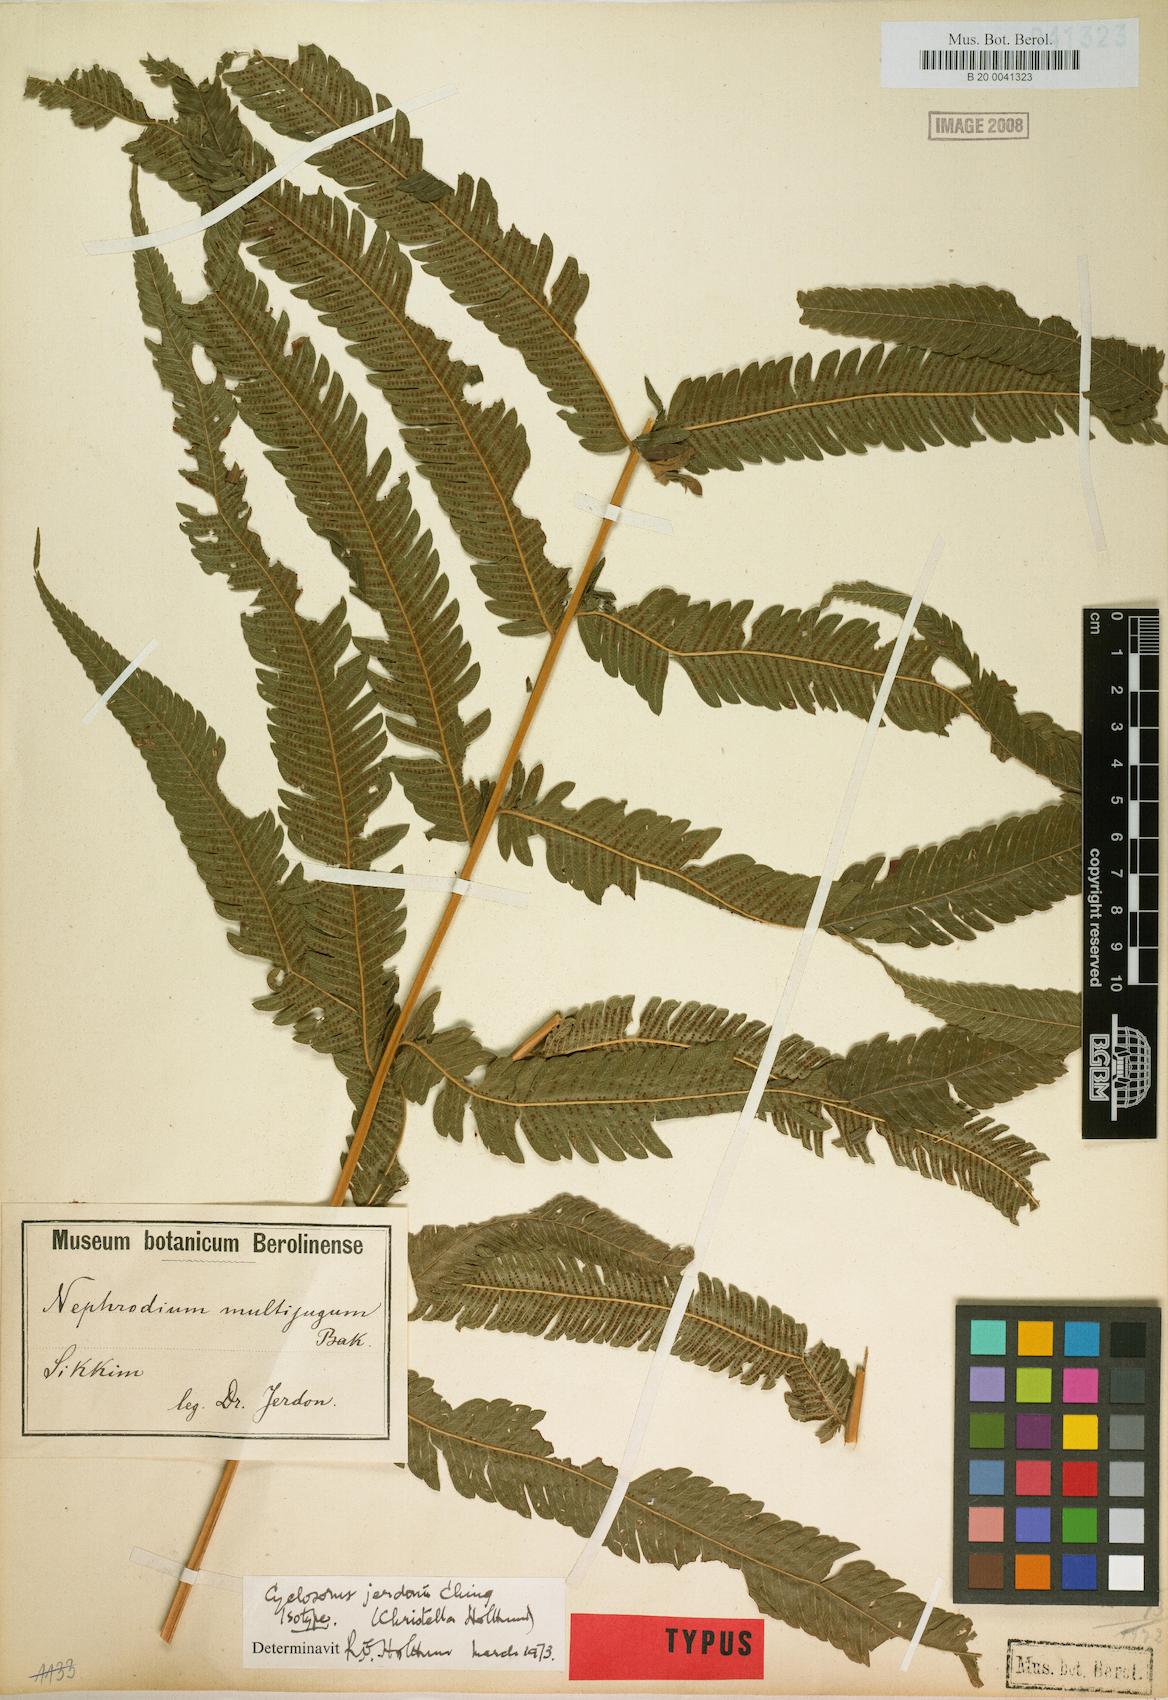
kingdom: Plantae
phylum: Tracheophyta
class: Polypodiopsida
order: Polypodiales
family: Thelypteridaceae
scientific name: Thelypteridaceae
